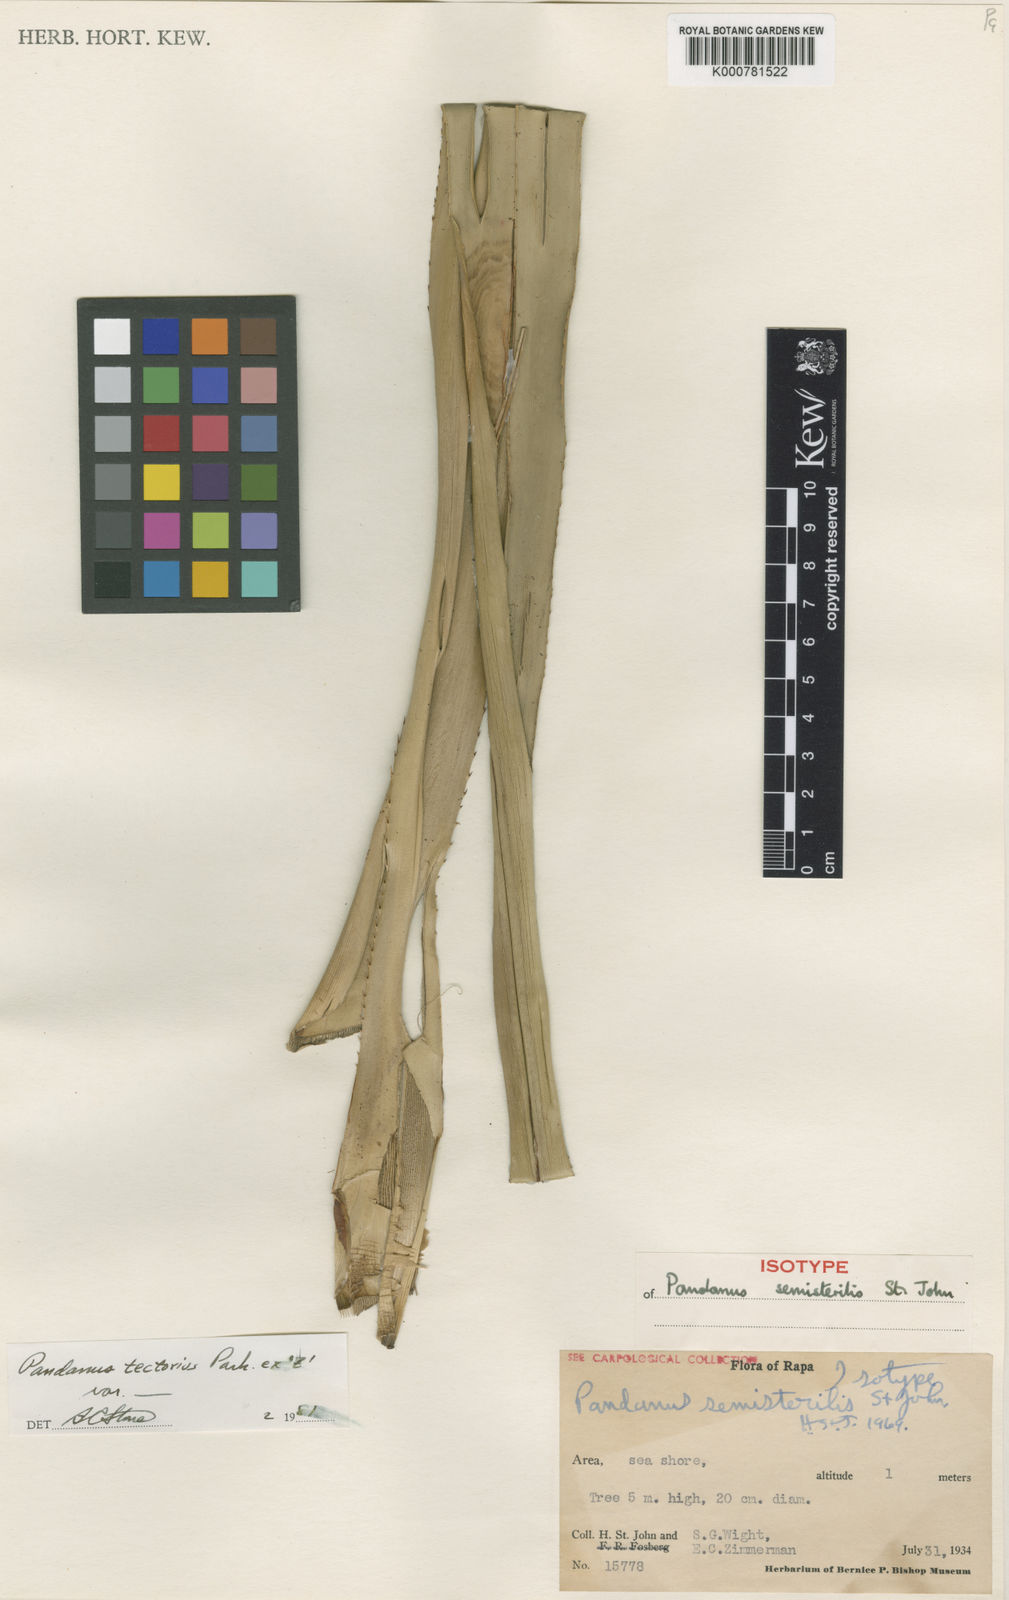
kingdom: Plantae
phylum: Tracheophyta
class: Liliopsida
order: Pandanales
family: Pandanaceae
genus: Pandanus
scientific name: Pandanus
